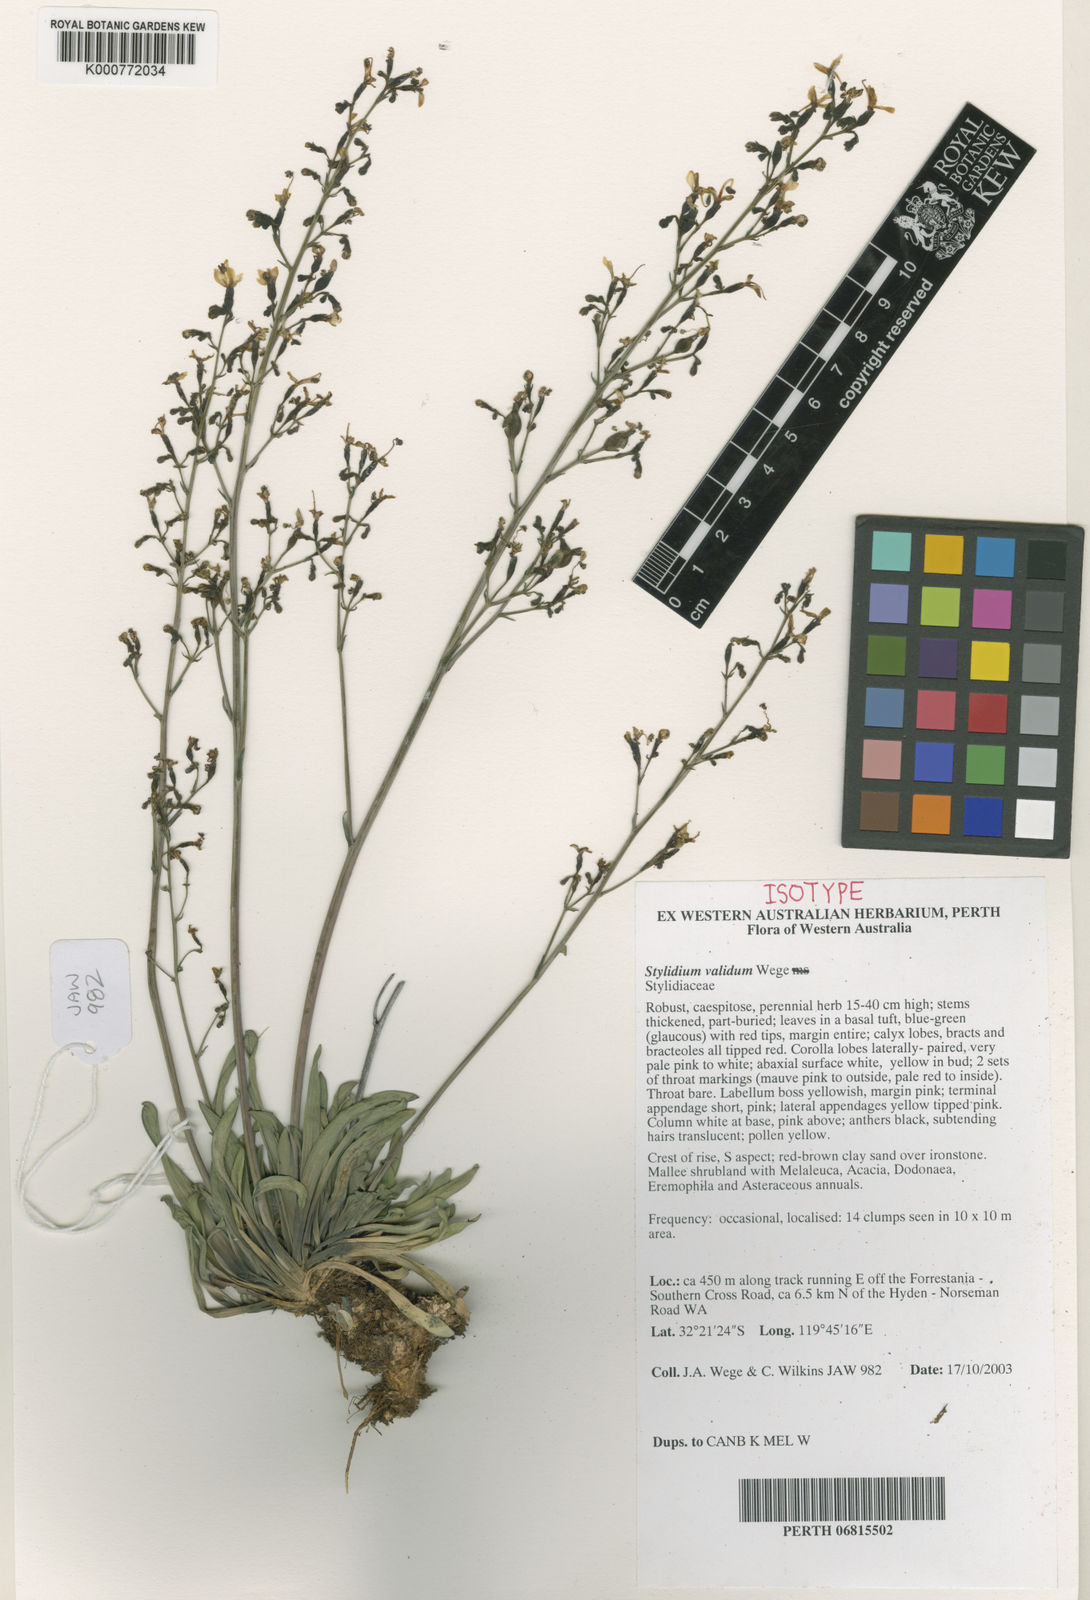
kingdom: Plantae
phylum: Tracheophyta
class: Magnoliopsida
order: Asterales
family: Stylidiaceae
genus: Stylidium
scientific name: Stylidium validum
